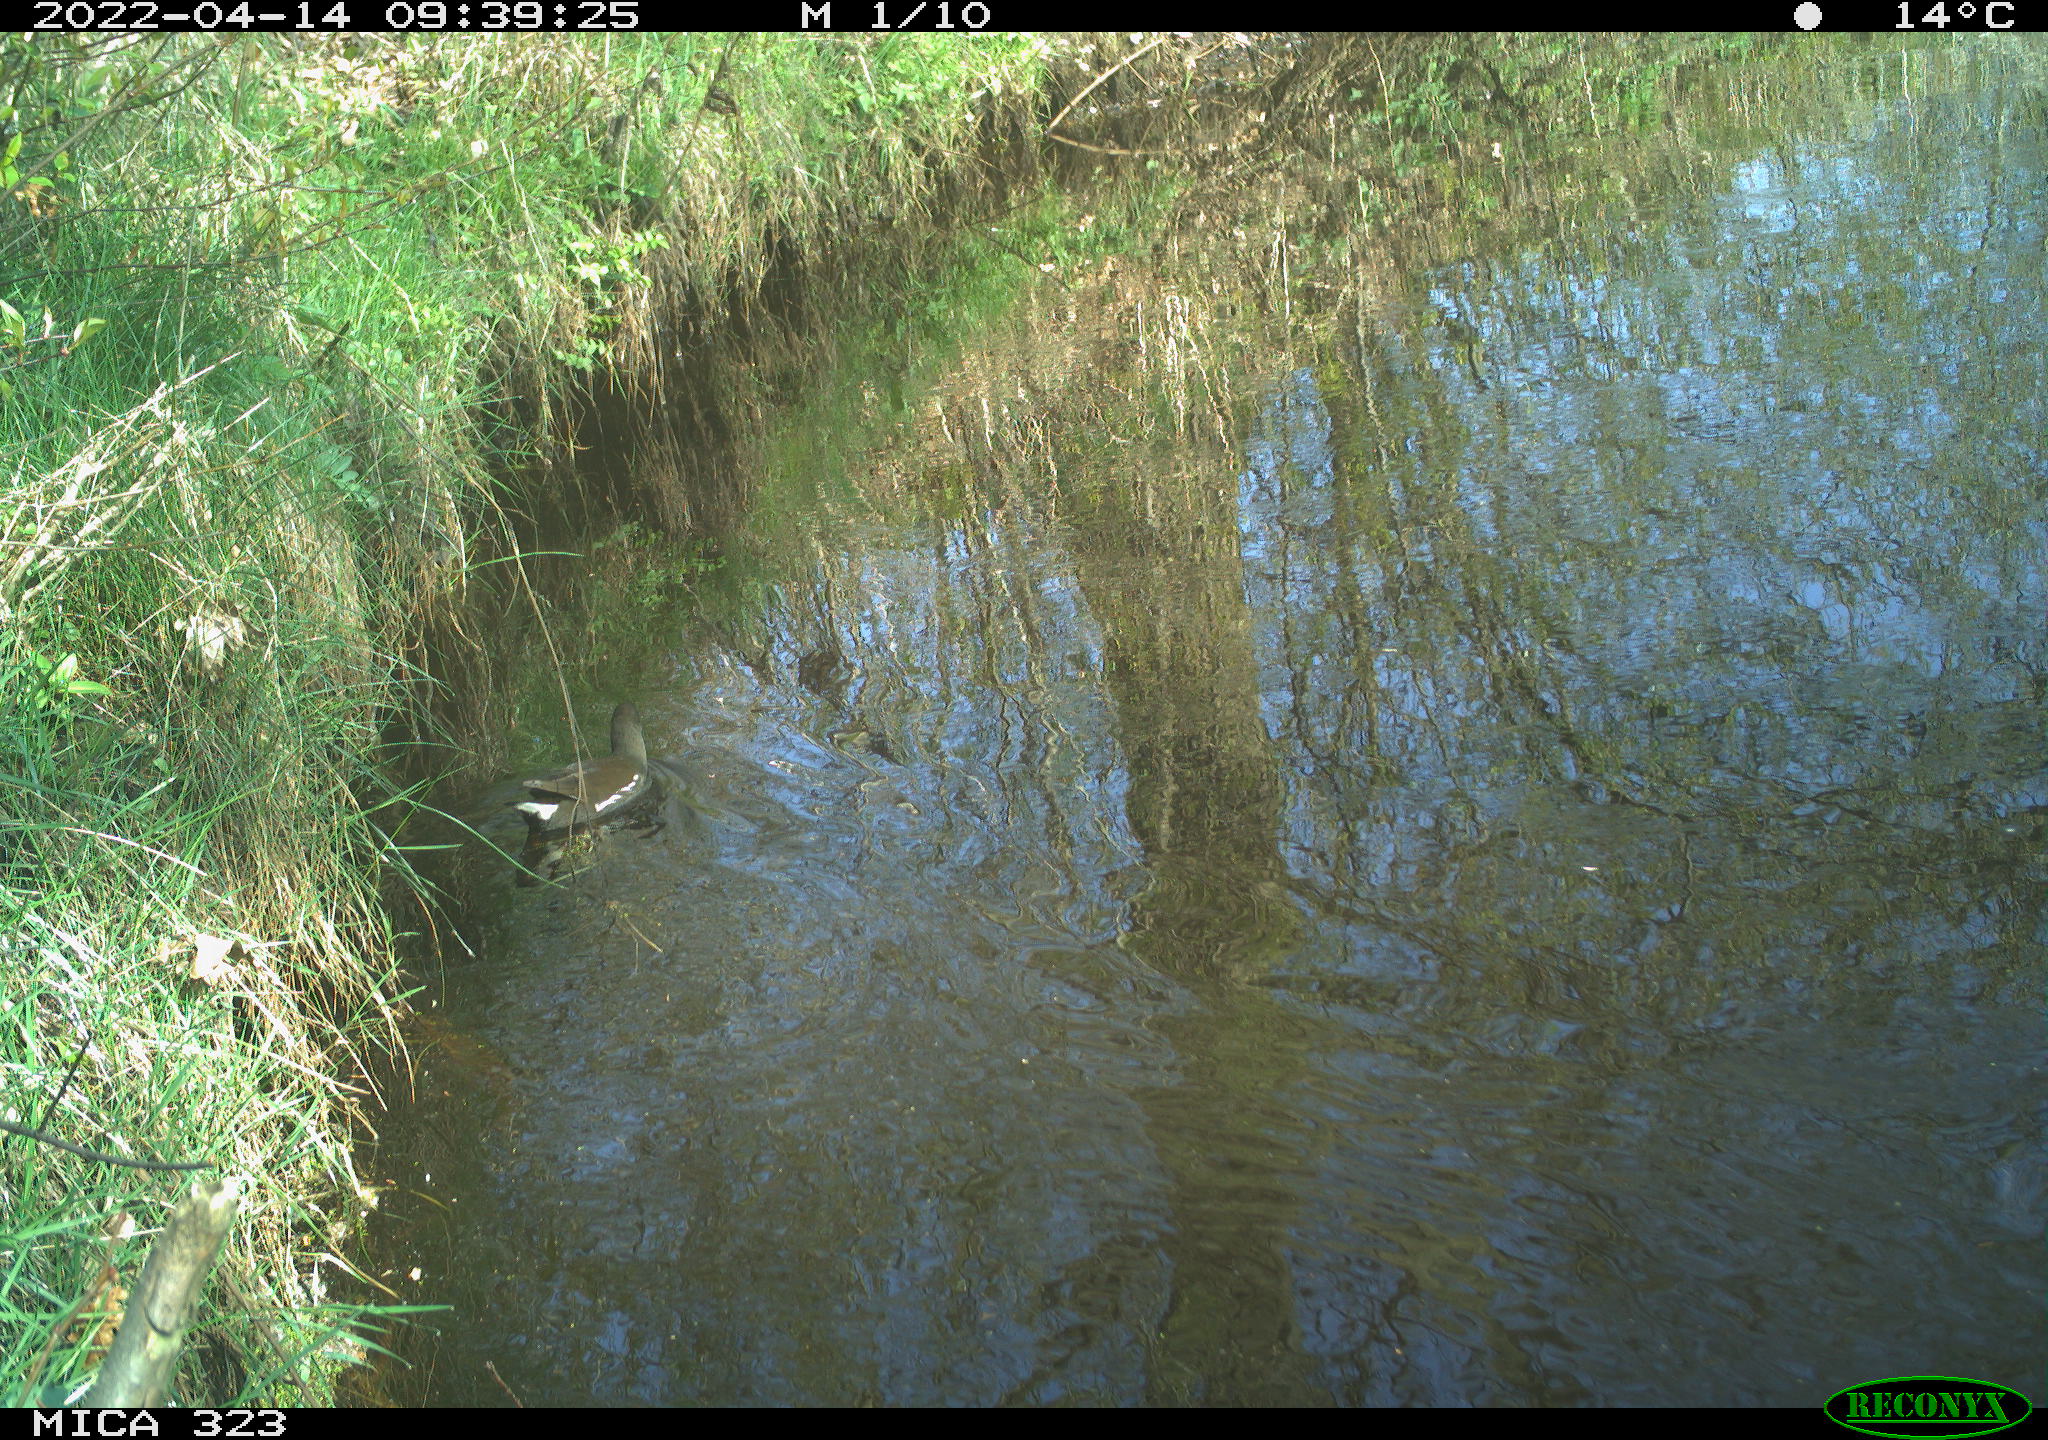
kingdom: Animalia
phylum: Chordata
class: Aves
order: Gruiformes
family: Rallidae
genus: Gallinula
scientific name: Gallinula chloropus
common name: Common moorhen
